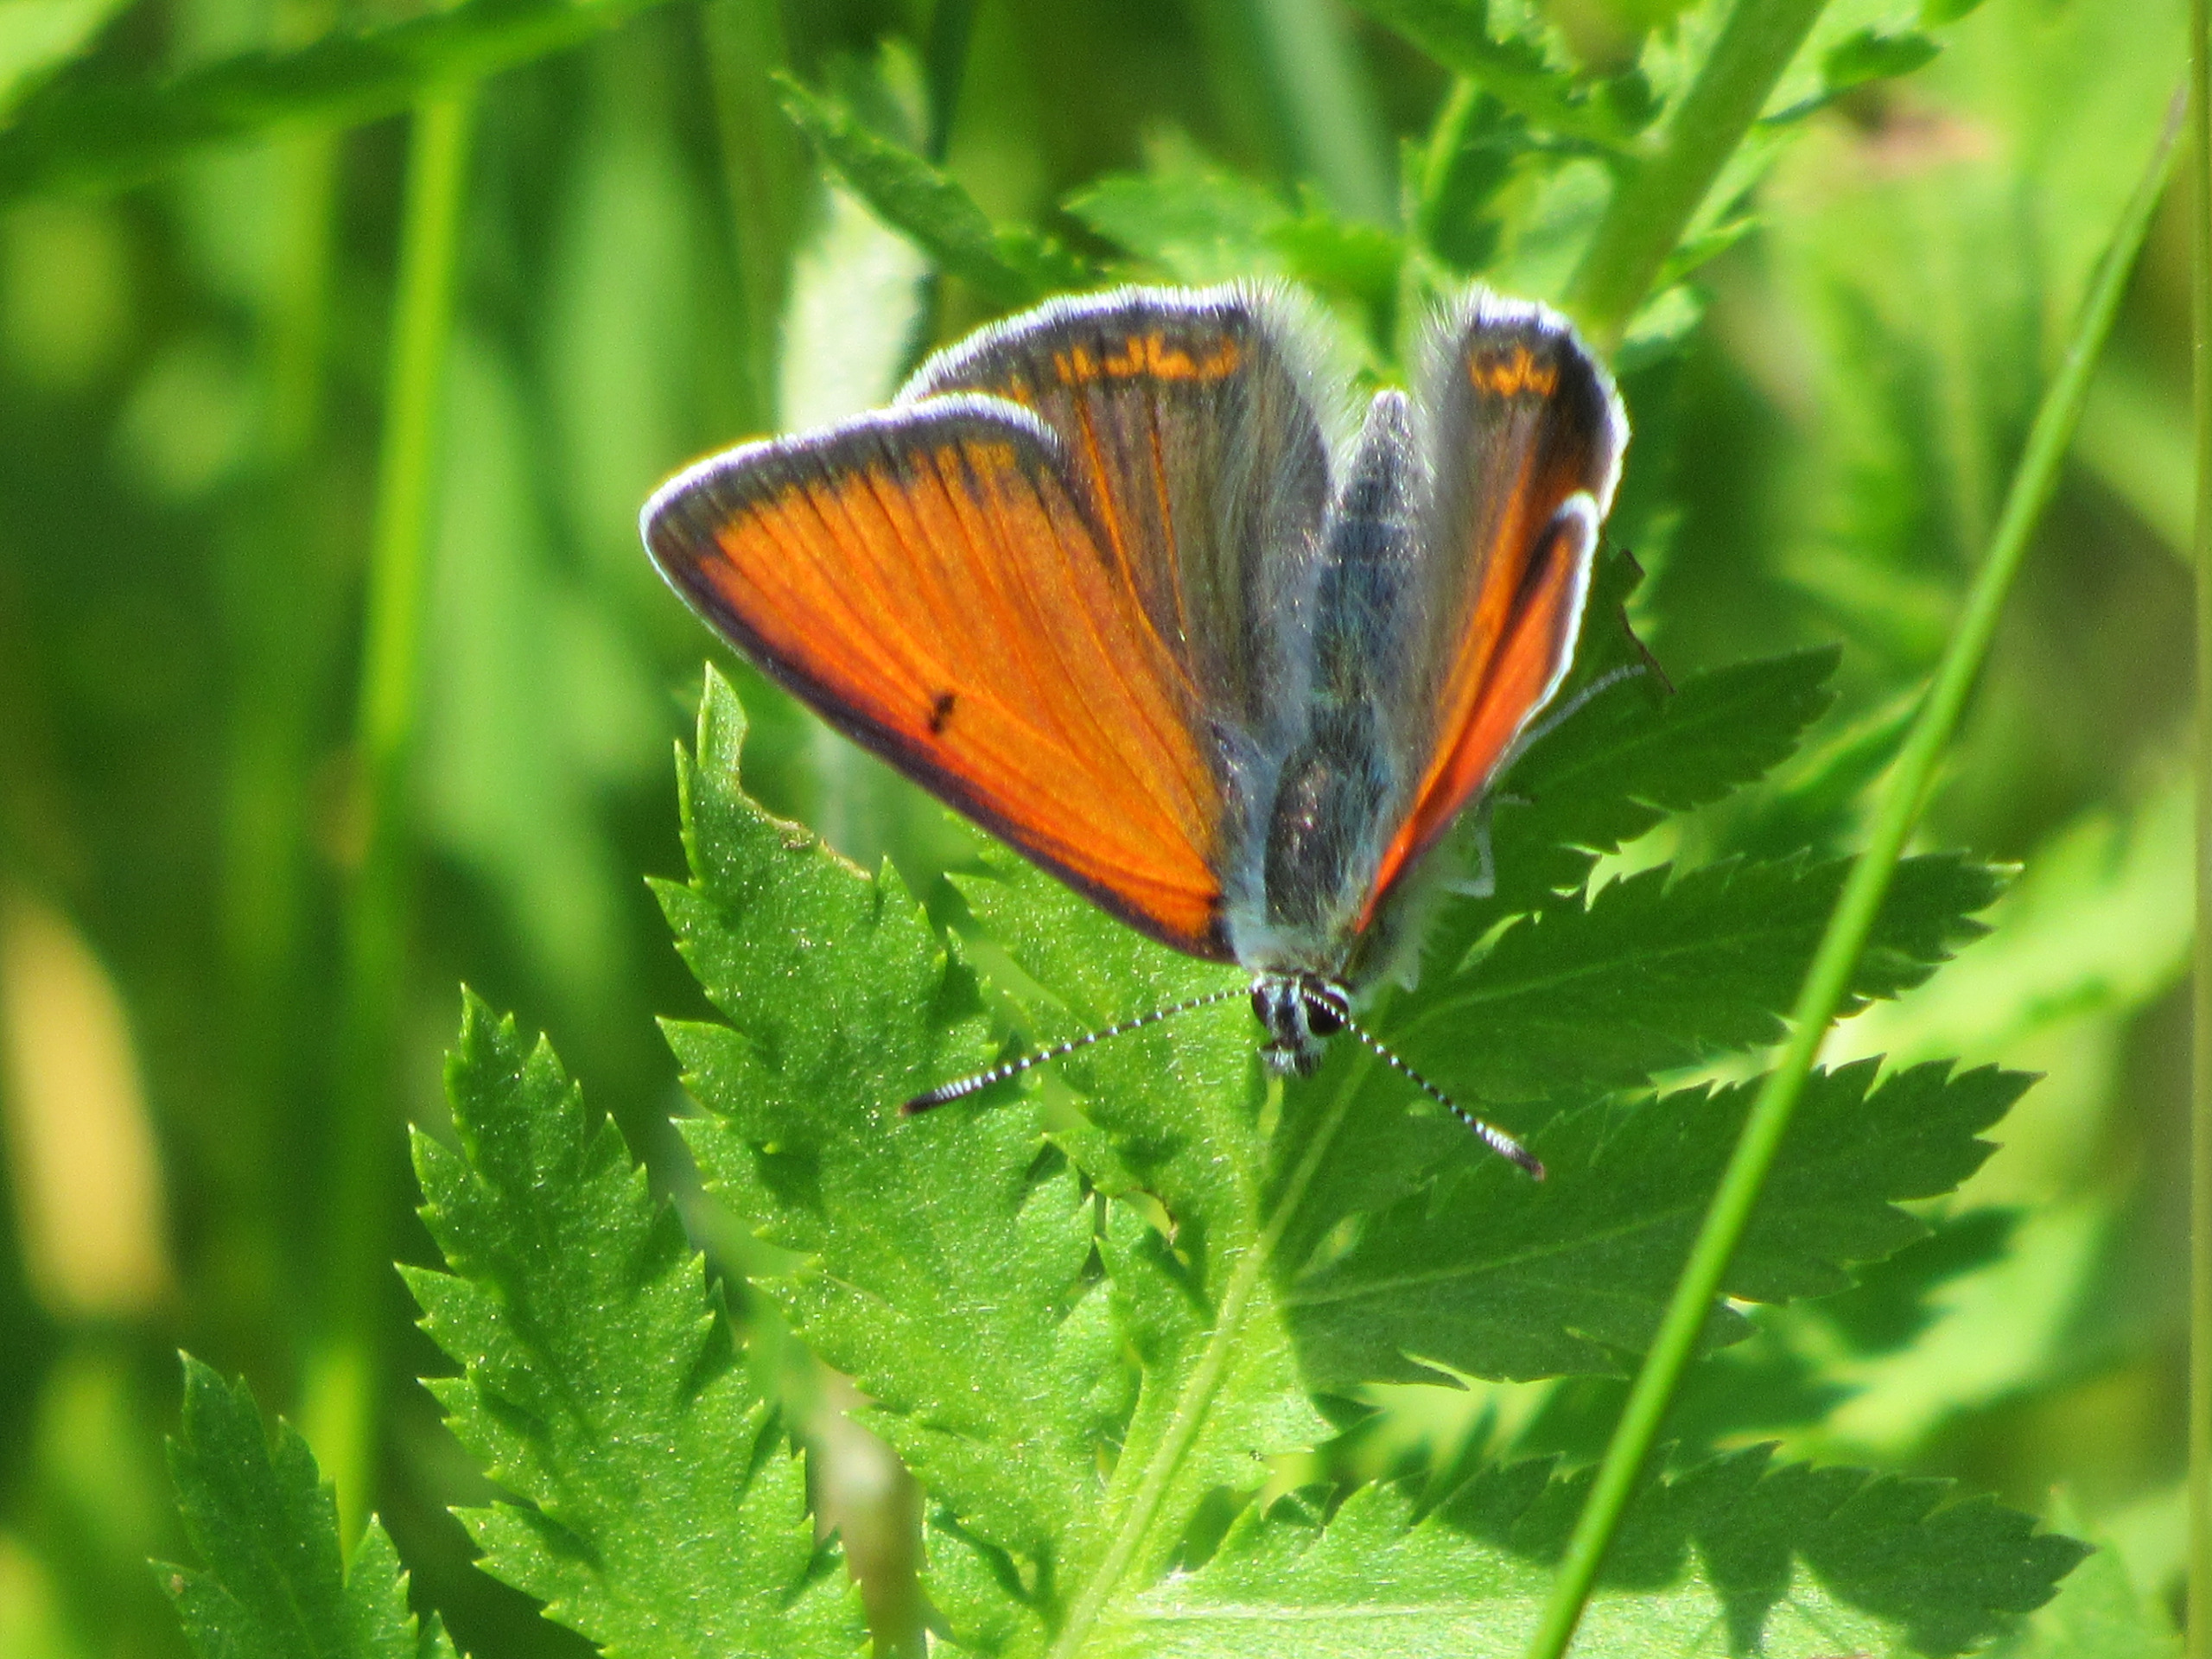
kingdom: Animalia
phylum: Arthropoda
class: Insecta
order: Lepidoptera
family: Lycaenidae
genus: Palaeochrysophanus
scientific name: Palaeochrysophanus hippothoe
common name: Violetrandet ildfugl
